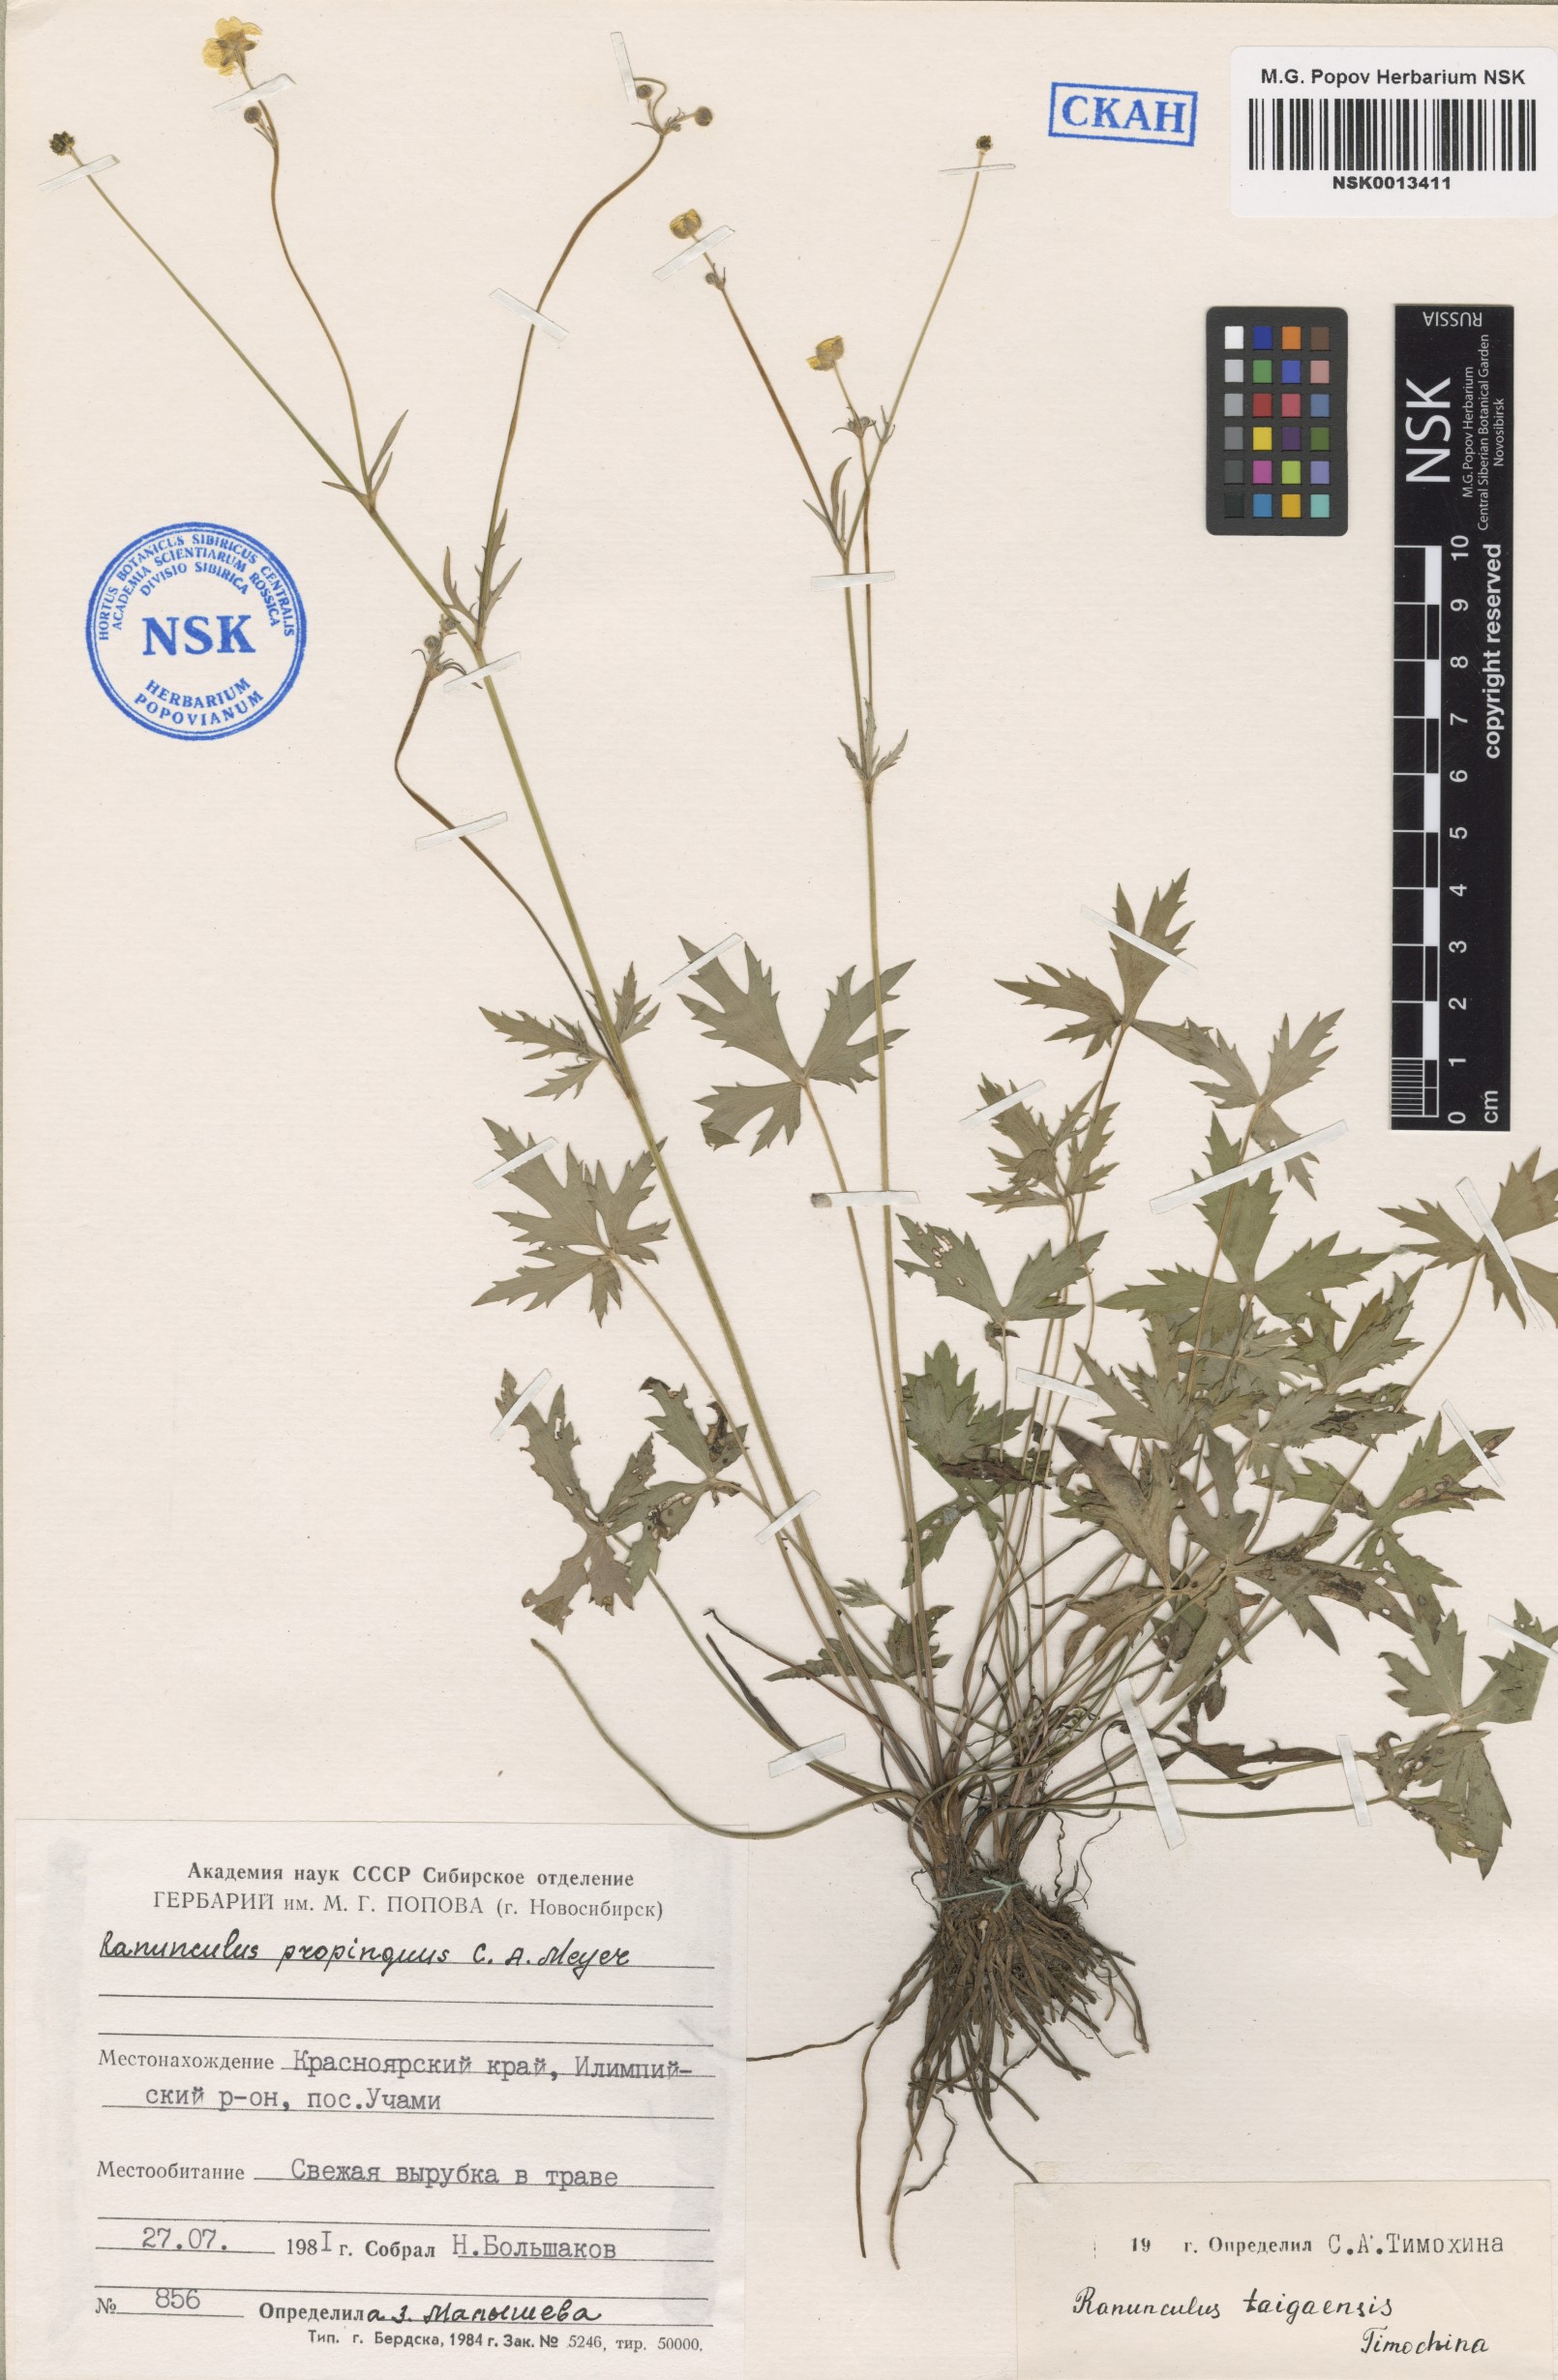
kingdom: Plantae
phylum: Tracheophyta
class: Magnoliopsida
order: Ranunculales
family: Ranunculaceae
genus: Ranunculus
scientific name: Ranunculus taigaensis
